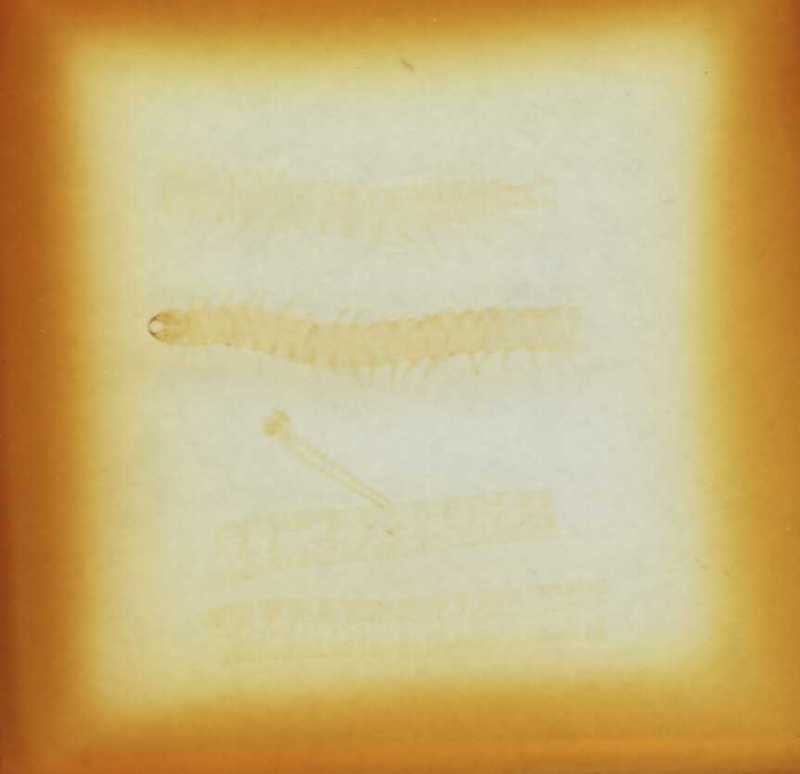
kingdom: Animalia
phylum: Arthropoda
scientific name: Arthropoda
